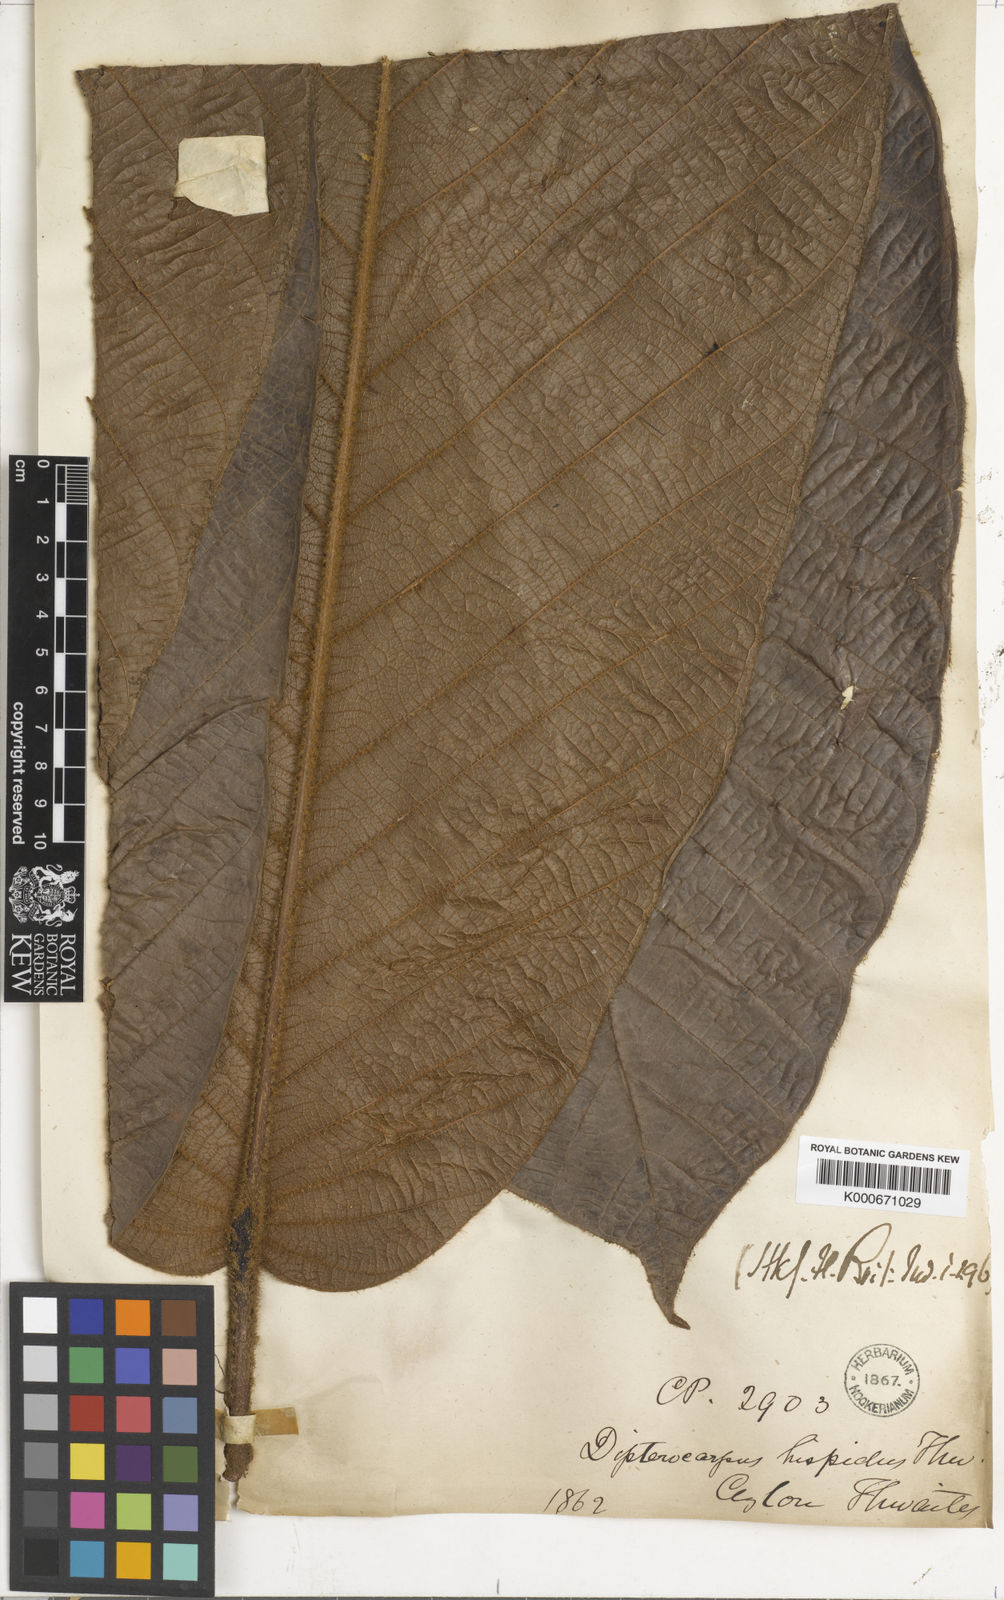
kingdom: Plantae
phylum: Tracheophyta
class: Magnoliopsida
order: Malvales
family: Dipterocarpaceae
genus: Dipterocarpus
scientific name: Dipterocarpus hispidus
